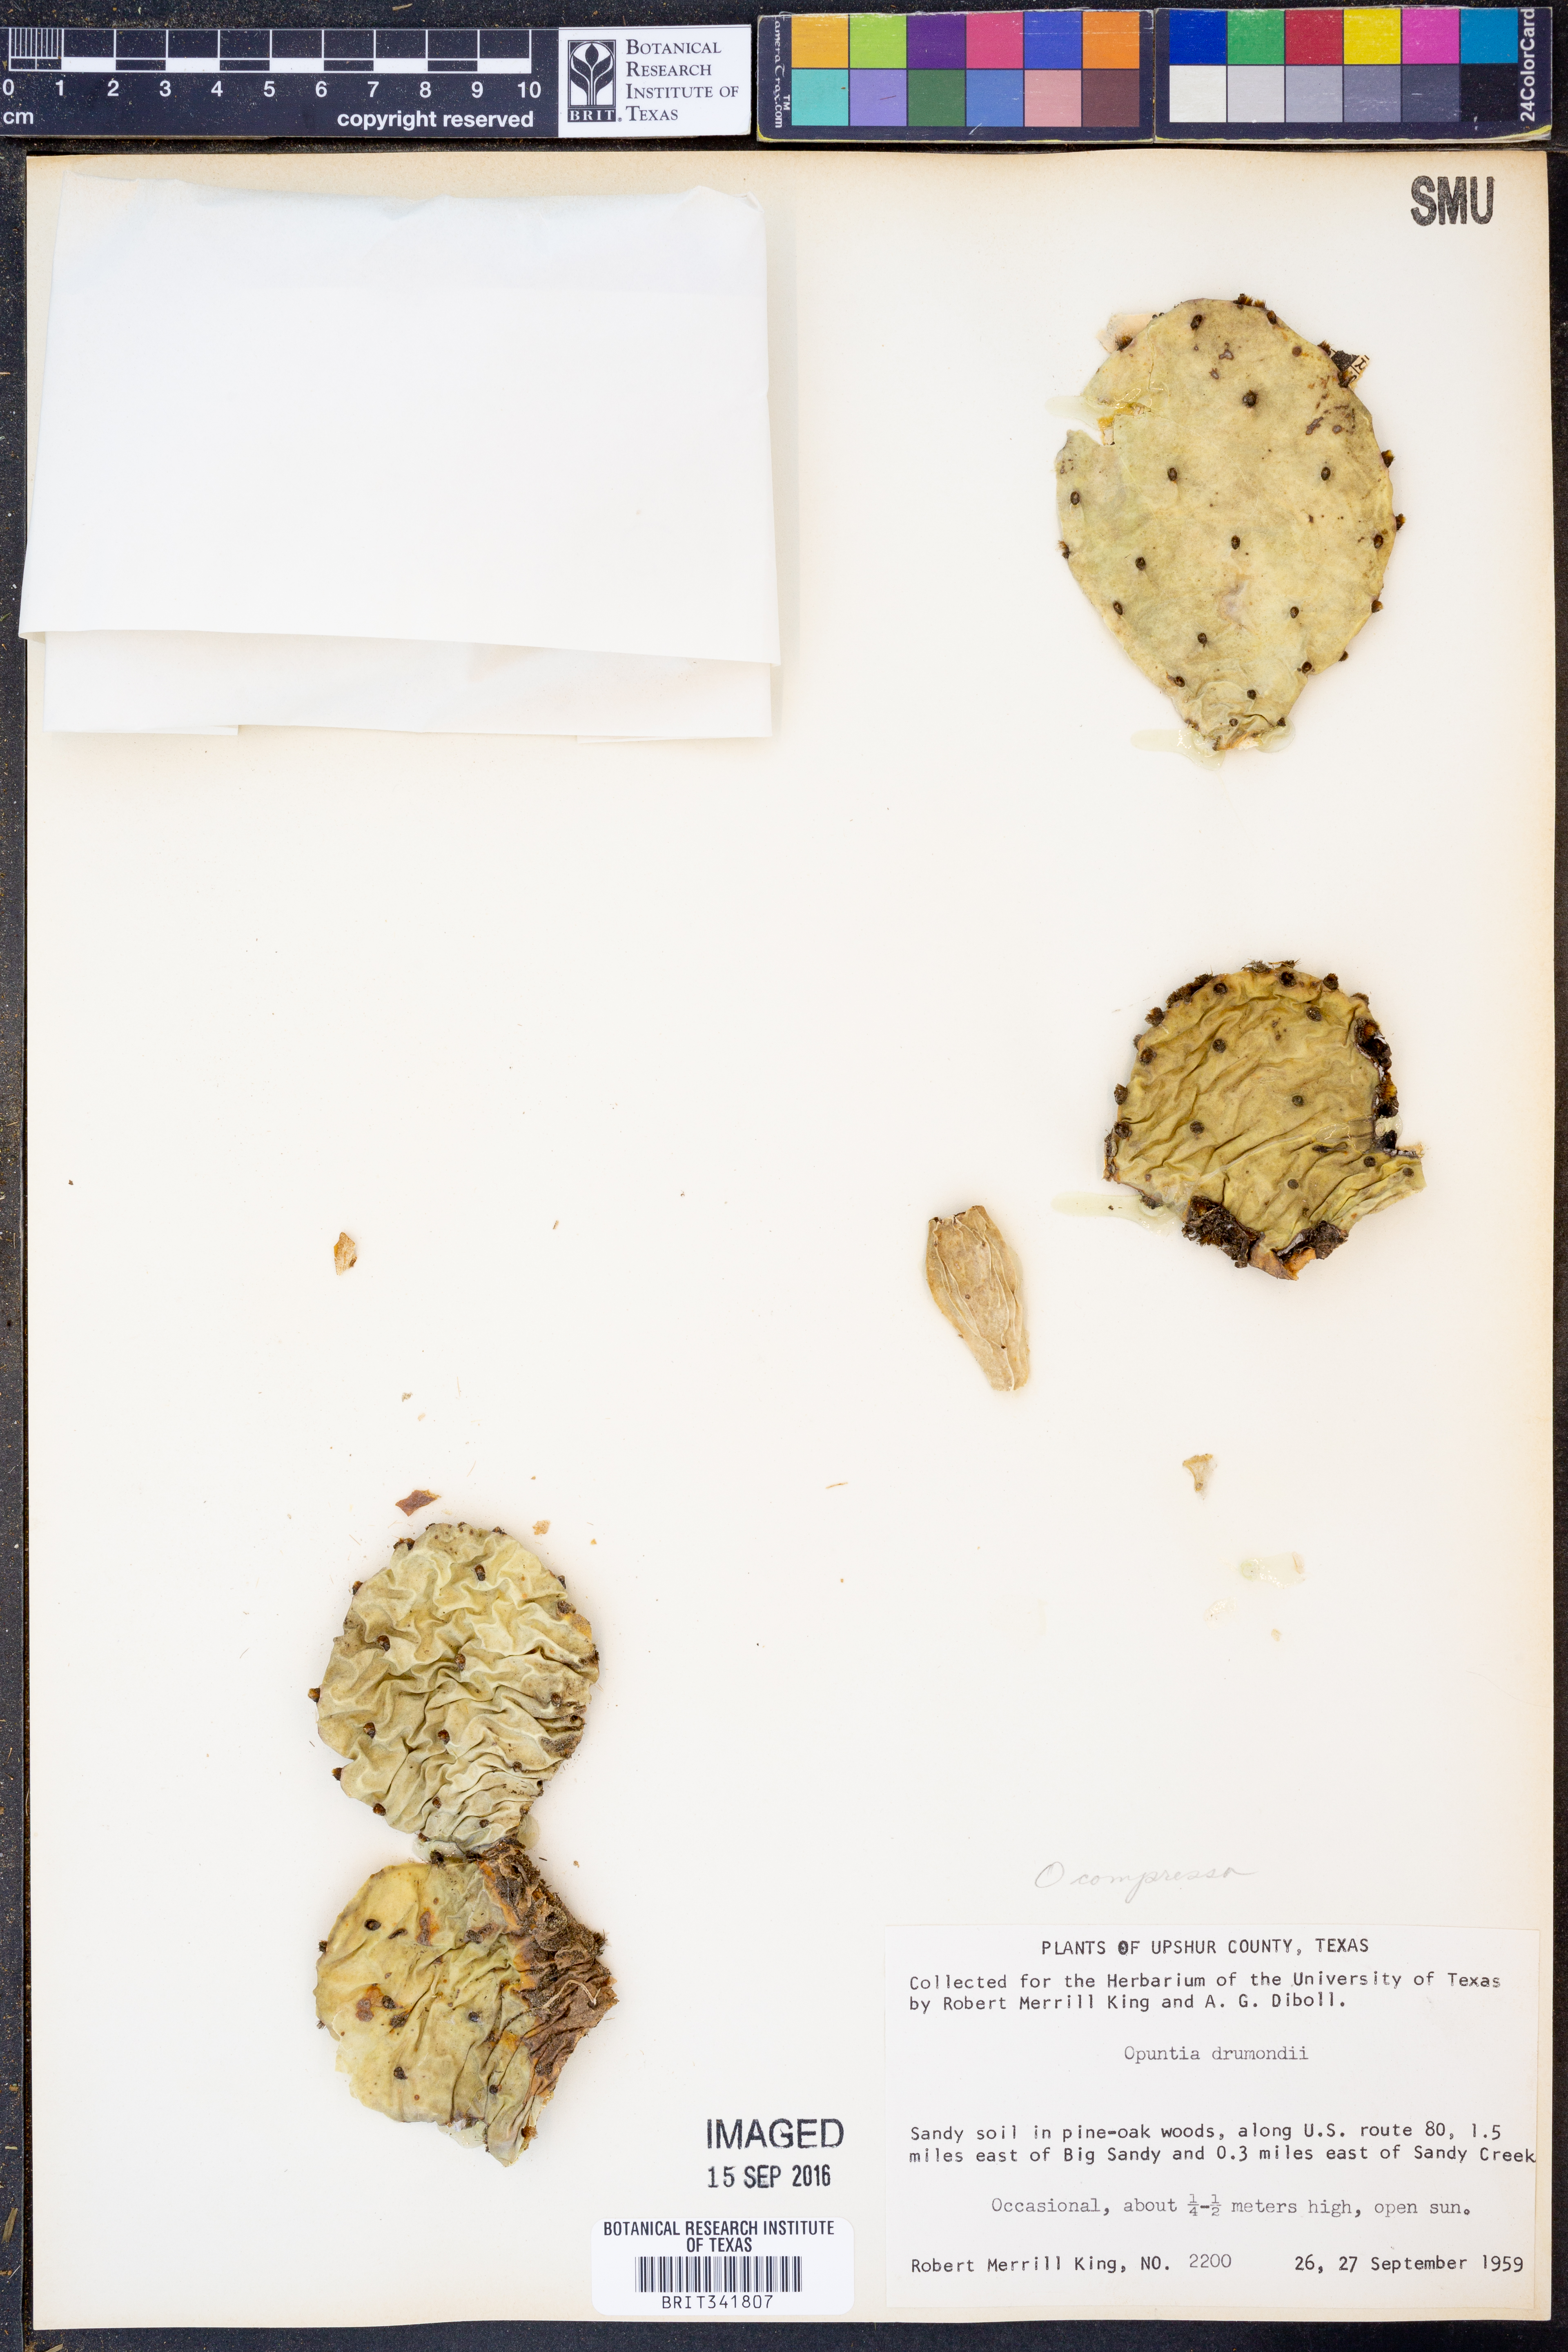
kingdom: Plantae
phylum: Tracheophyta
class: Magnoliopsida
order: Caryophyllales
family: Cactaceae
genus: Opuntia
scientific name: Opuntia humifusa
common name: Eastern prickly-pear
